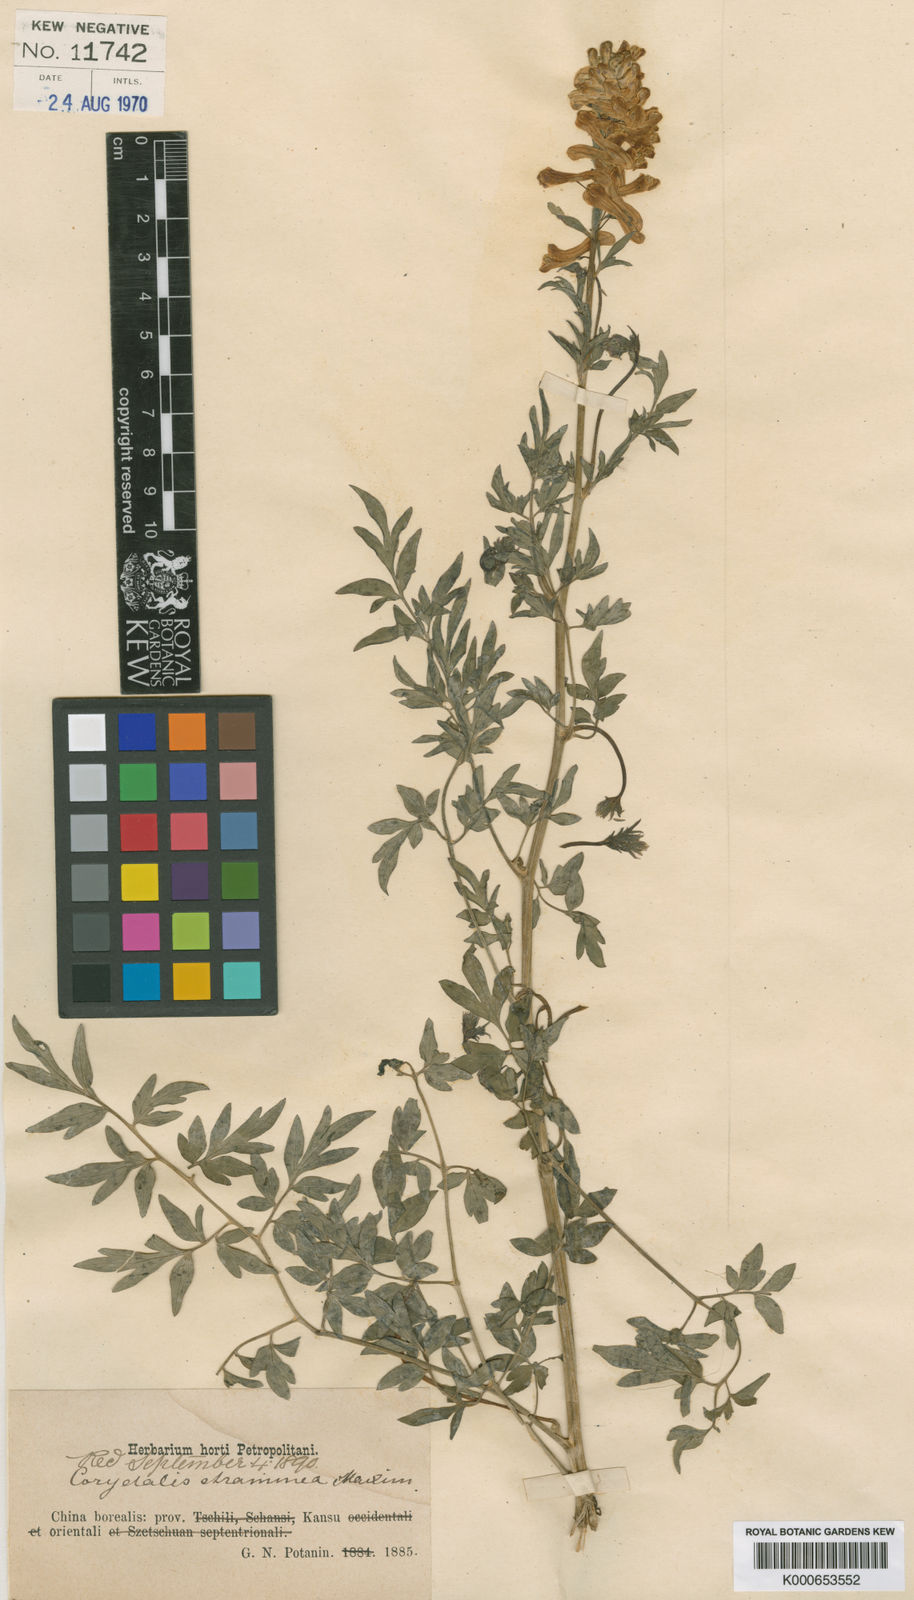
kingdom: Plantae
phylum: Tracheophyta
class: Magnoliopsida
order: Ranunculales
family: Papaveraceae
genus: Corydalis
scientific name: Corydalis straminea
